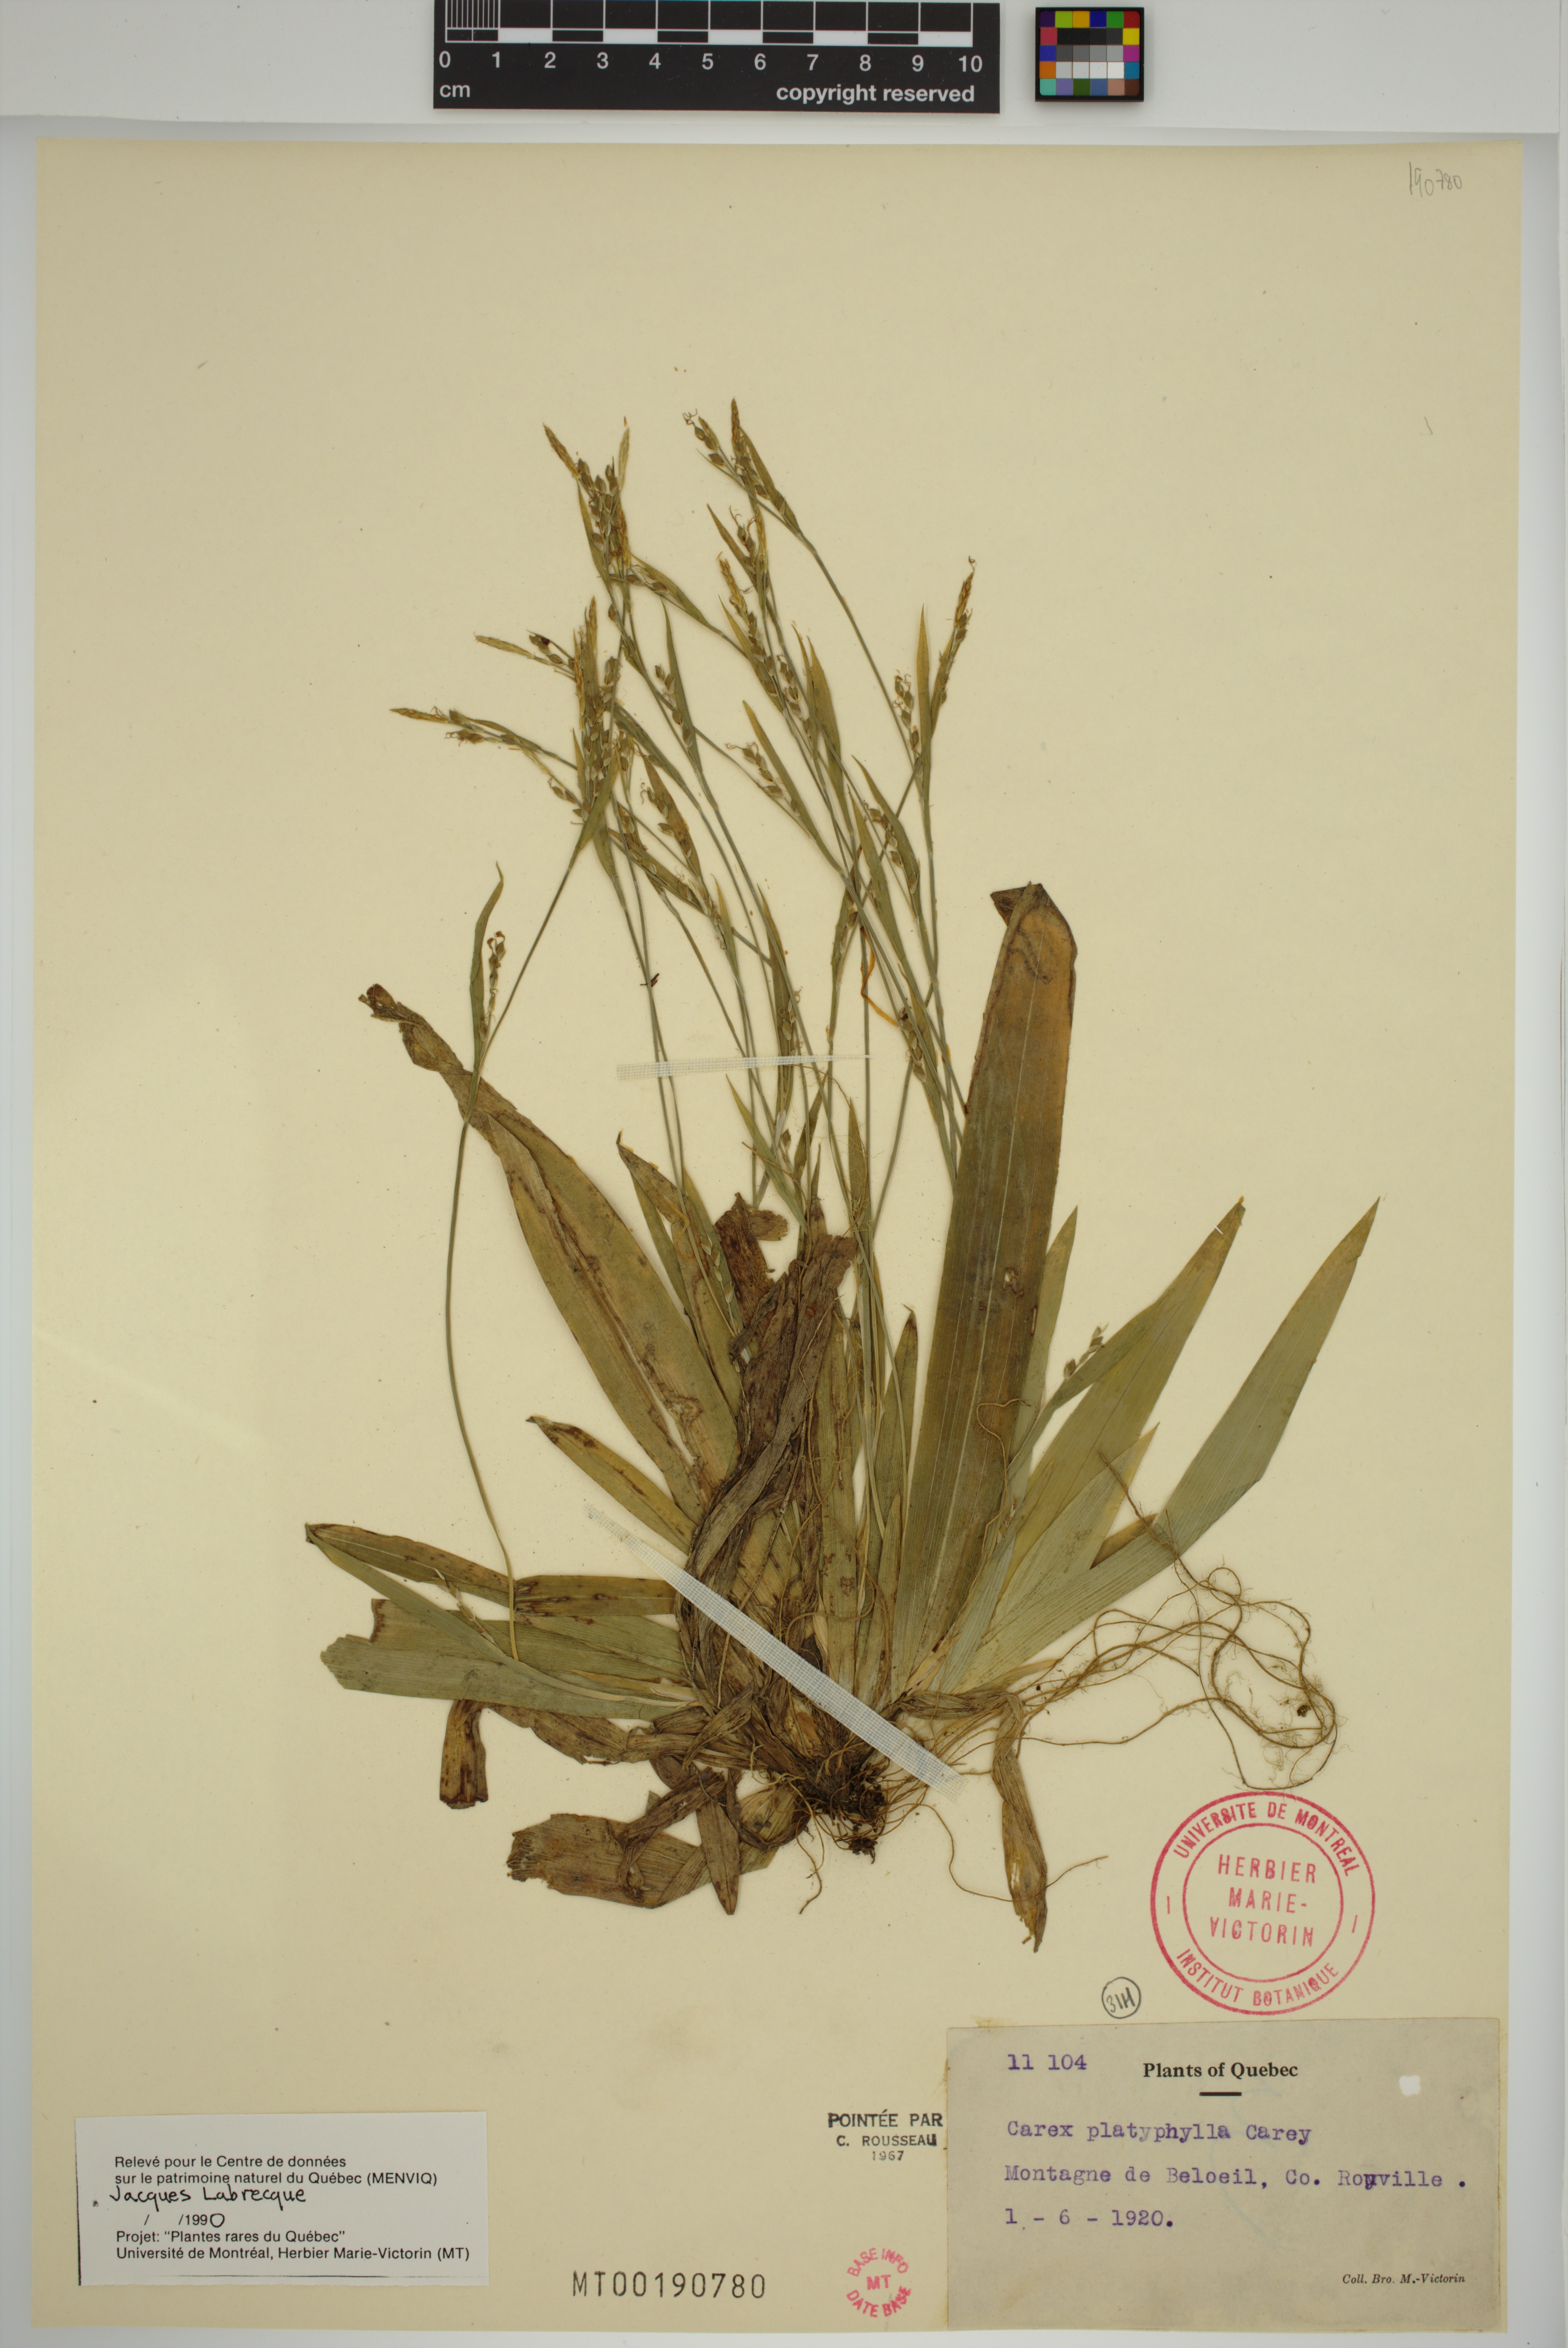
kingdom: Plantae
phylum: Tracheophyta
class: Liliopsida
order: Poales
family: Cyperaceae
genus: Carex
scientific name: Carex platyphylla
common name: Broad-leaved sedge
